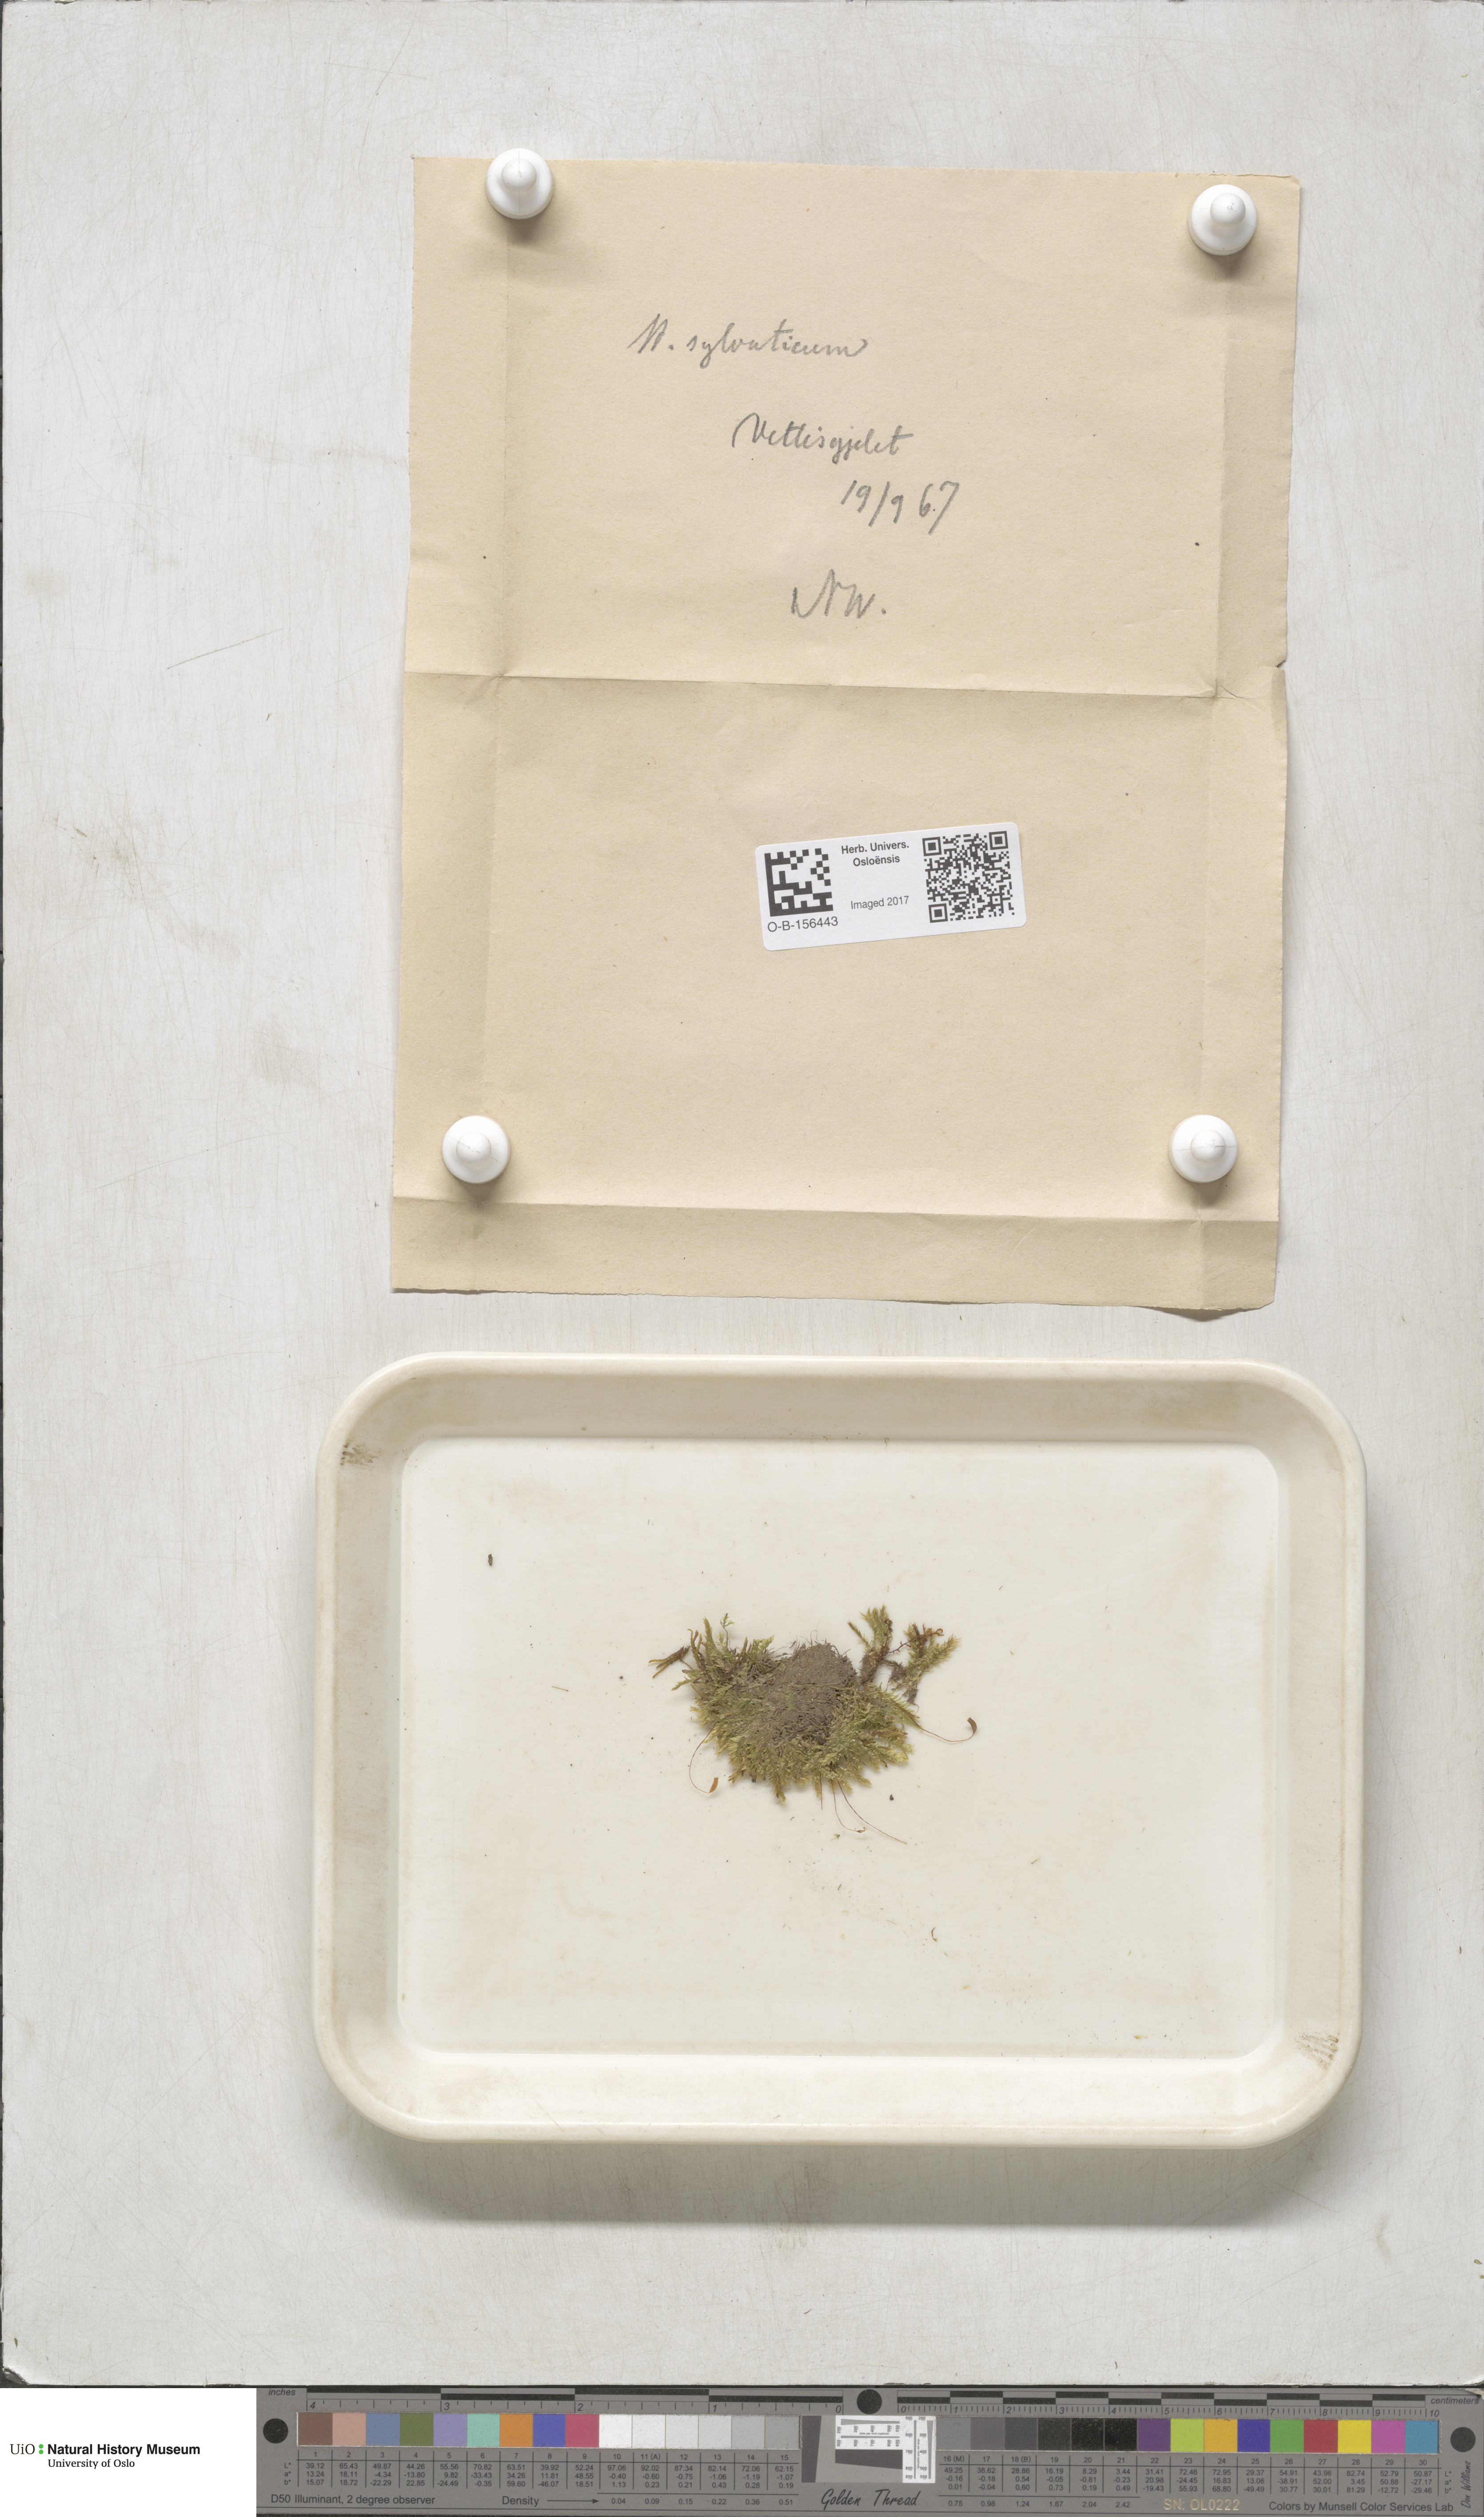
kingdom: Plantae
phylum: Bryophyta
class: Bryopsida
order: Hypnales
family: Plagiotheciaceae
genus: Plagiothecium
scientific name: Plagiothecium nemorale
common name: Woodsy silk-moss
